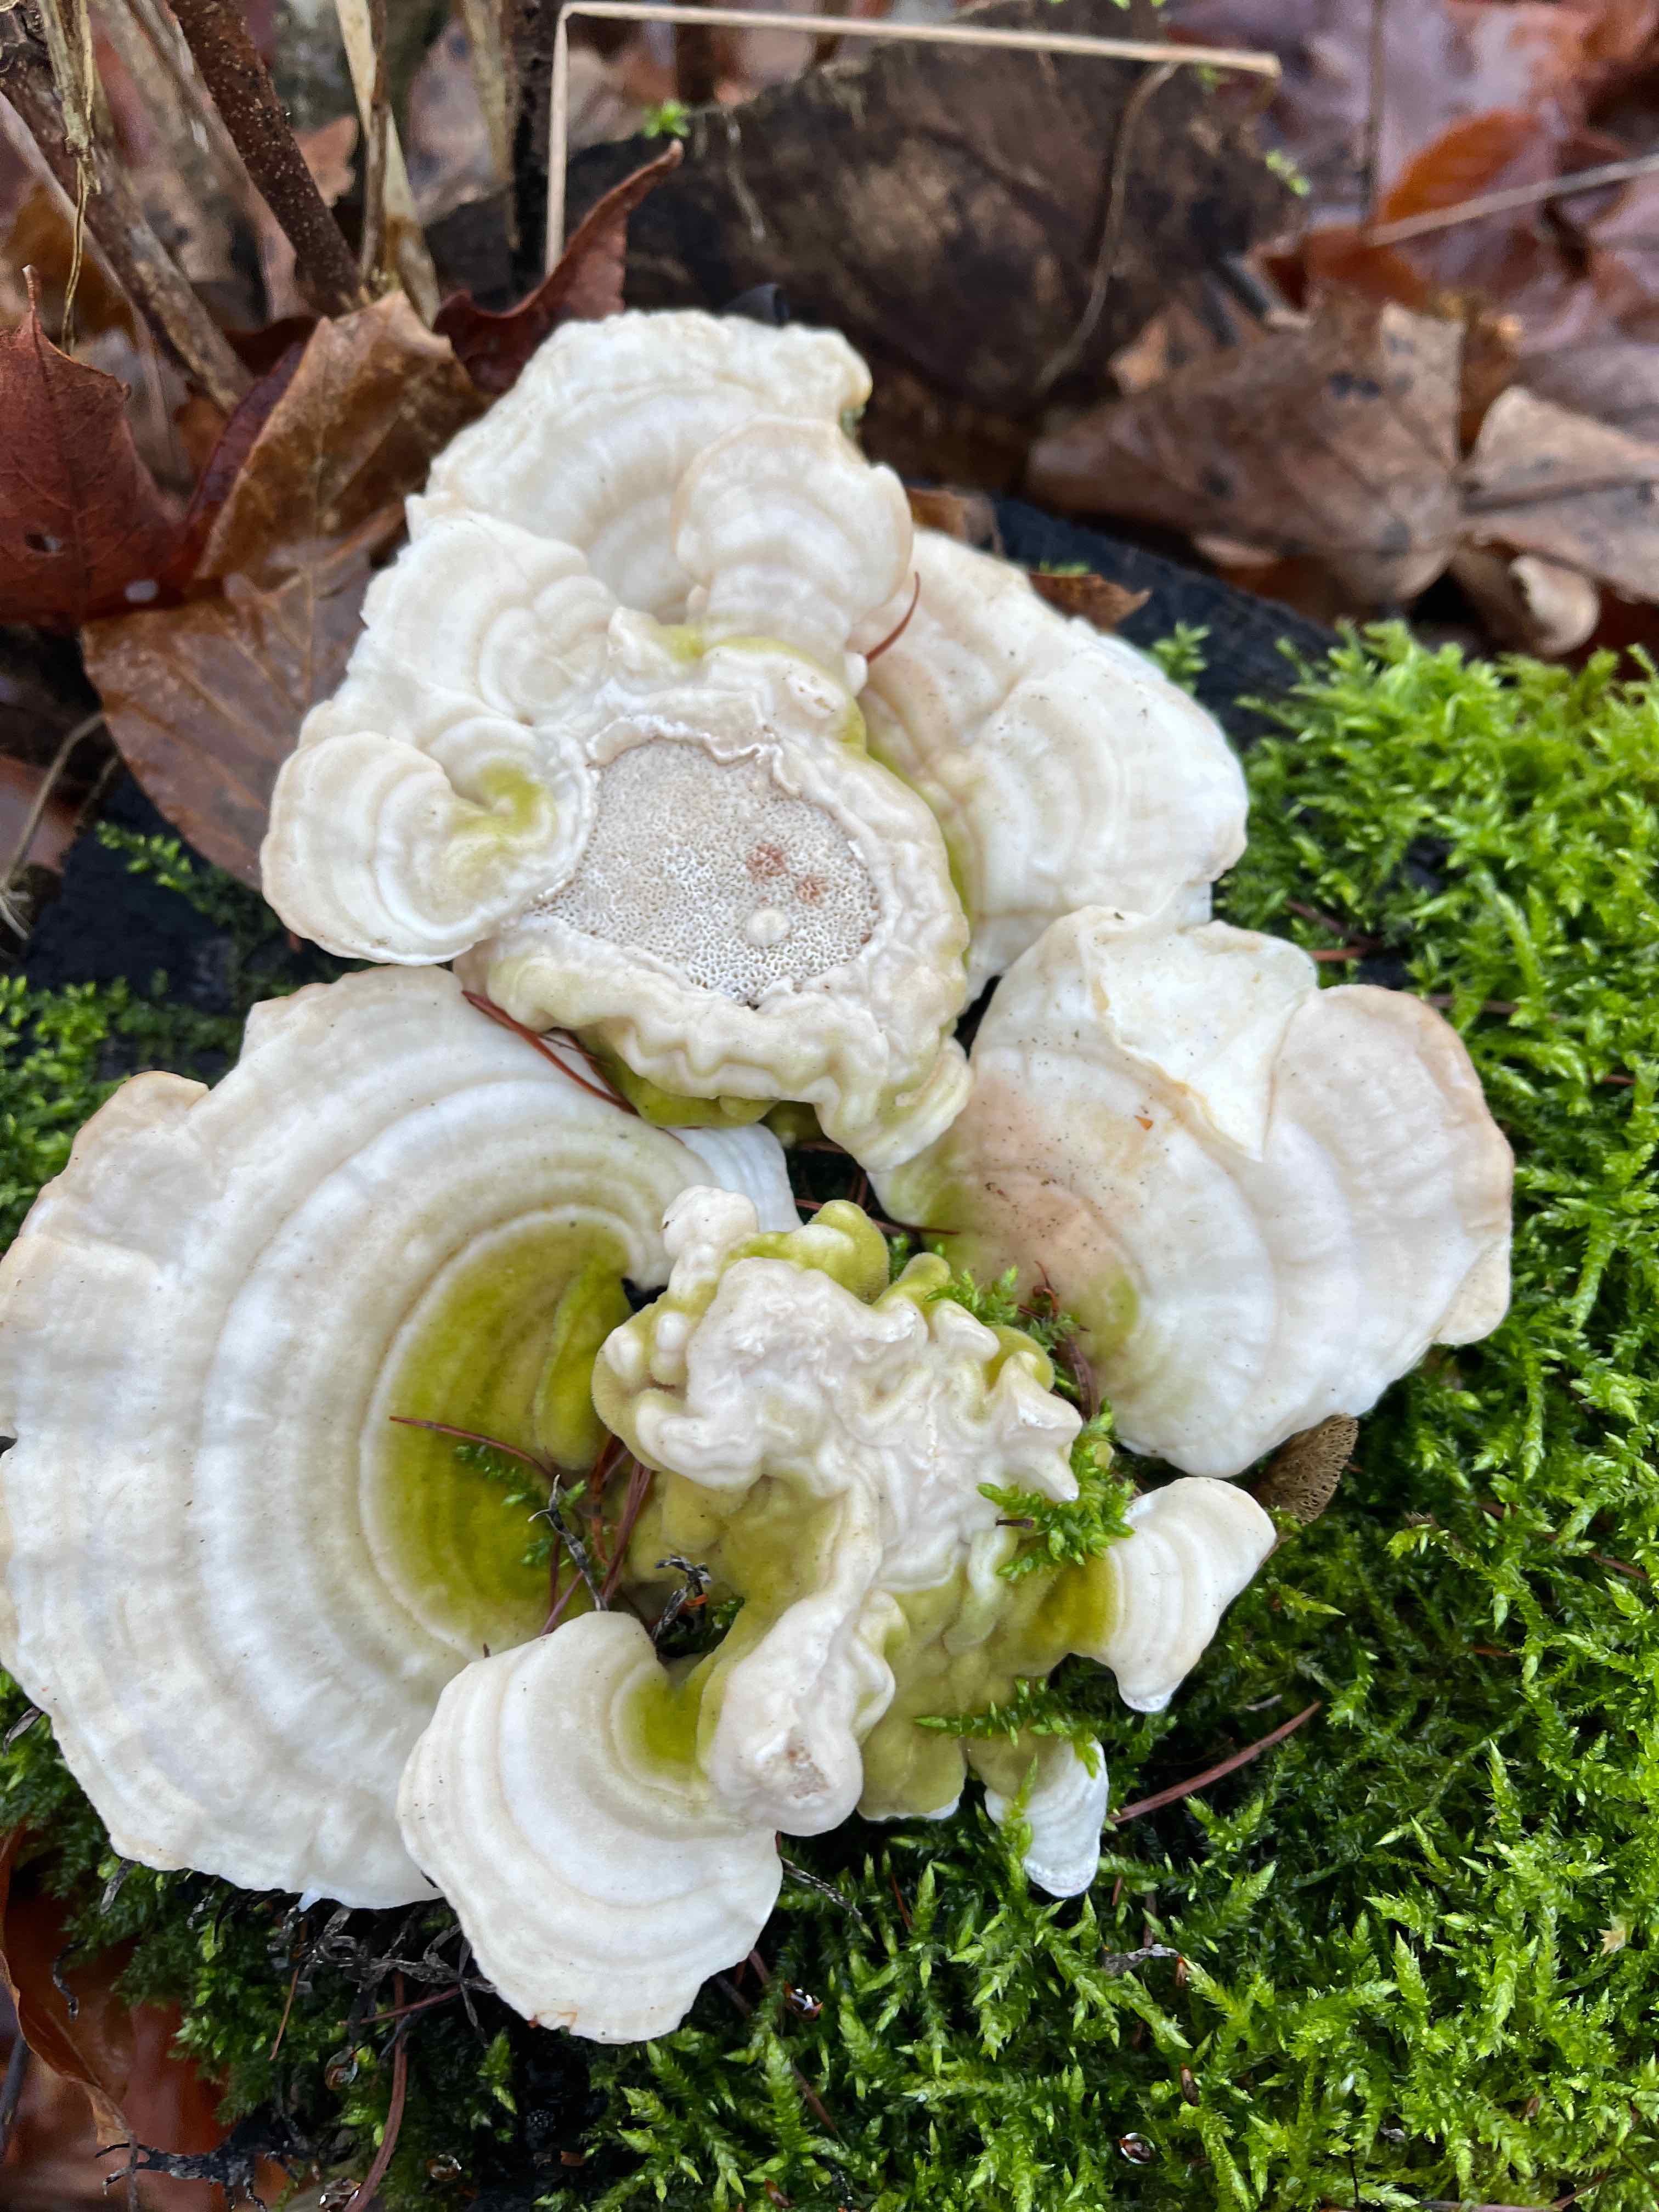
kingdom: Fungi
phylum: Basidiomycota
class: Agaricomycetes
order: Polyporales
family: Polyporaceae
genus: Trametes
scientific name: Trametes hirsuta
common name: håret læderporesvamp
